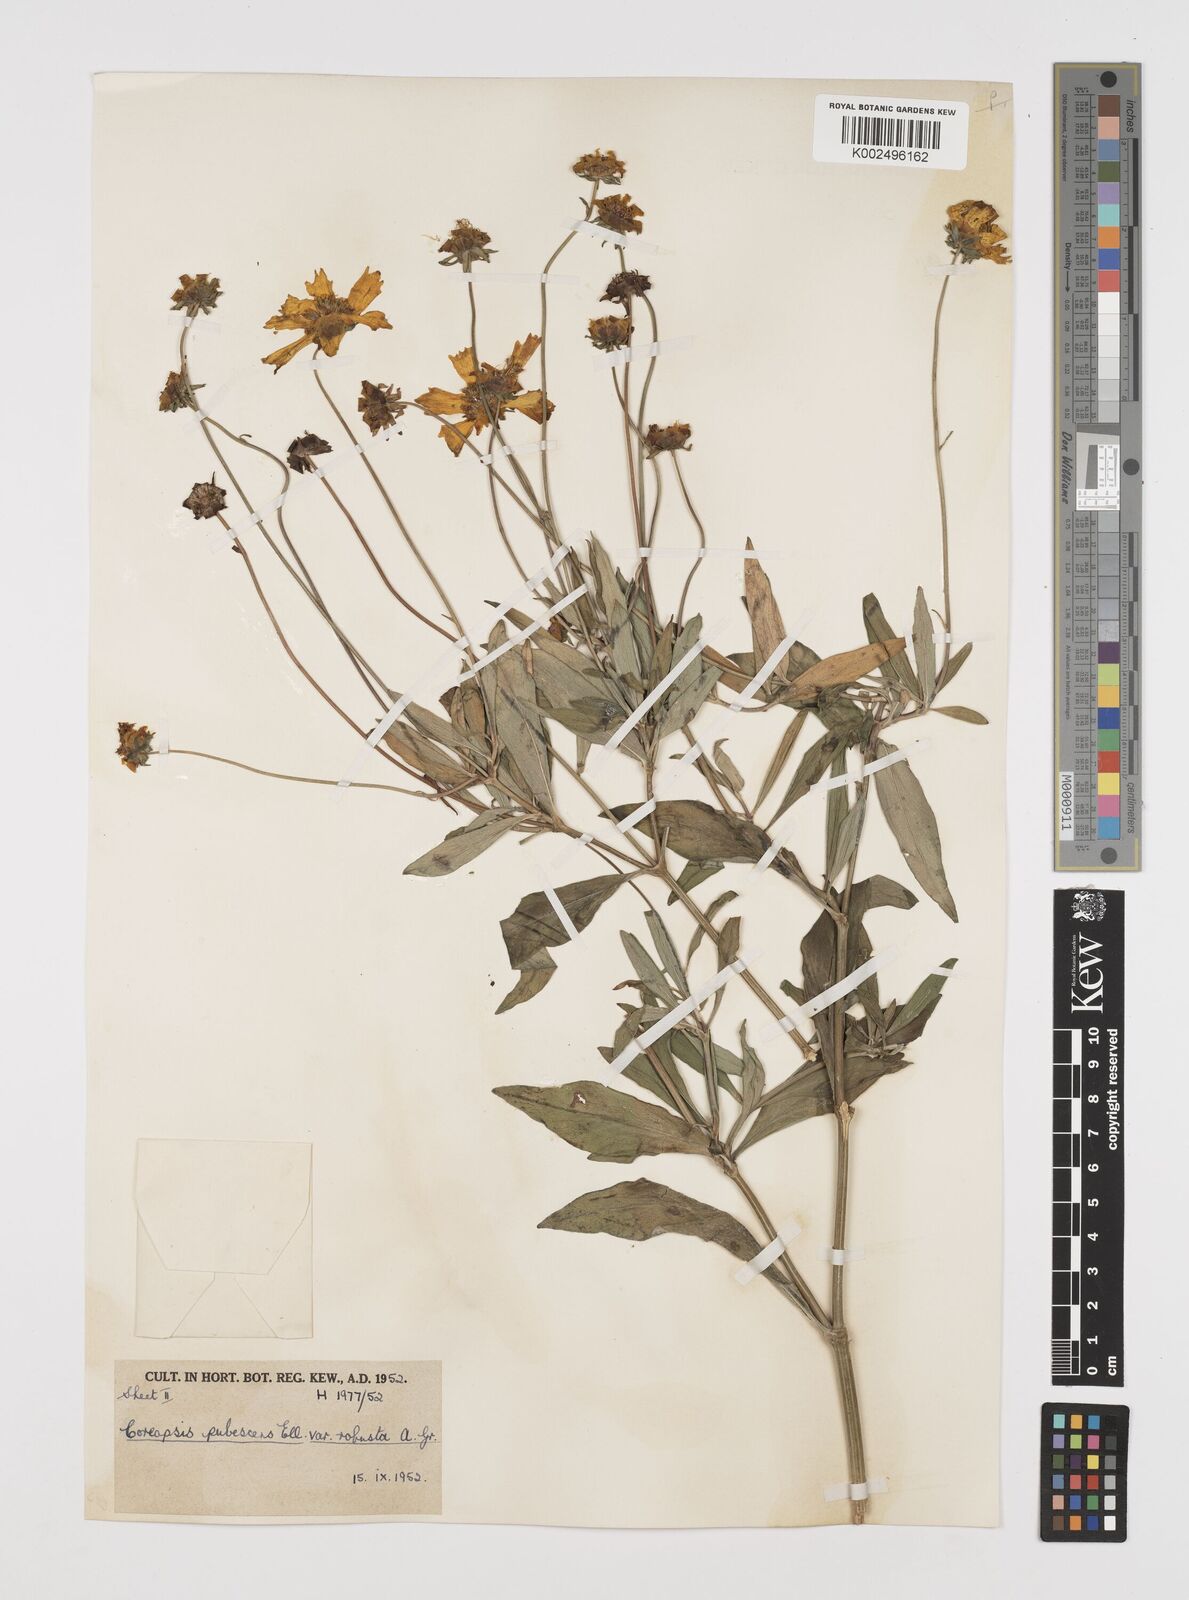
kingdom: Plantae
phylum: Tracheophyta
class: Magnoliopsida
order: Asterales
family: Asteraceae
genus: Coreopsis
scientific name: Coreopsis pubescens
